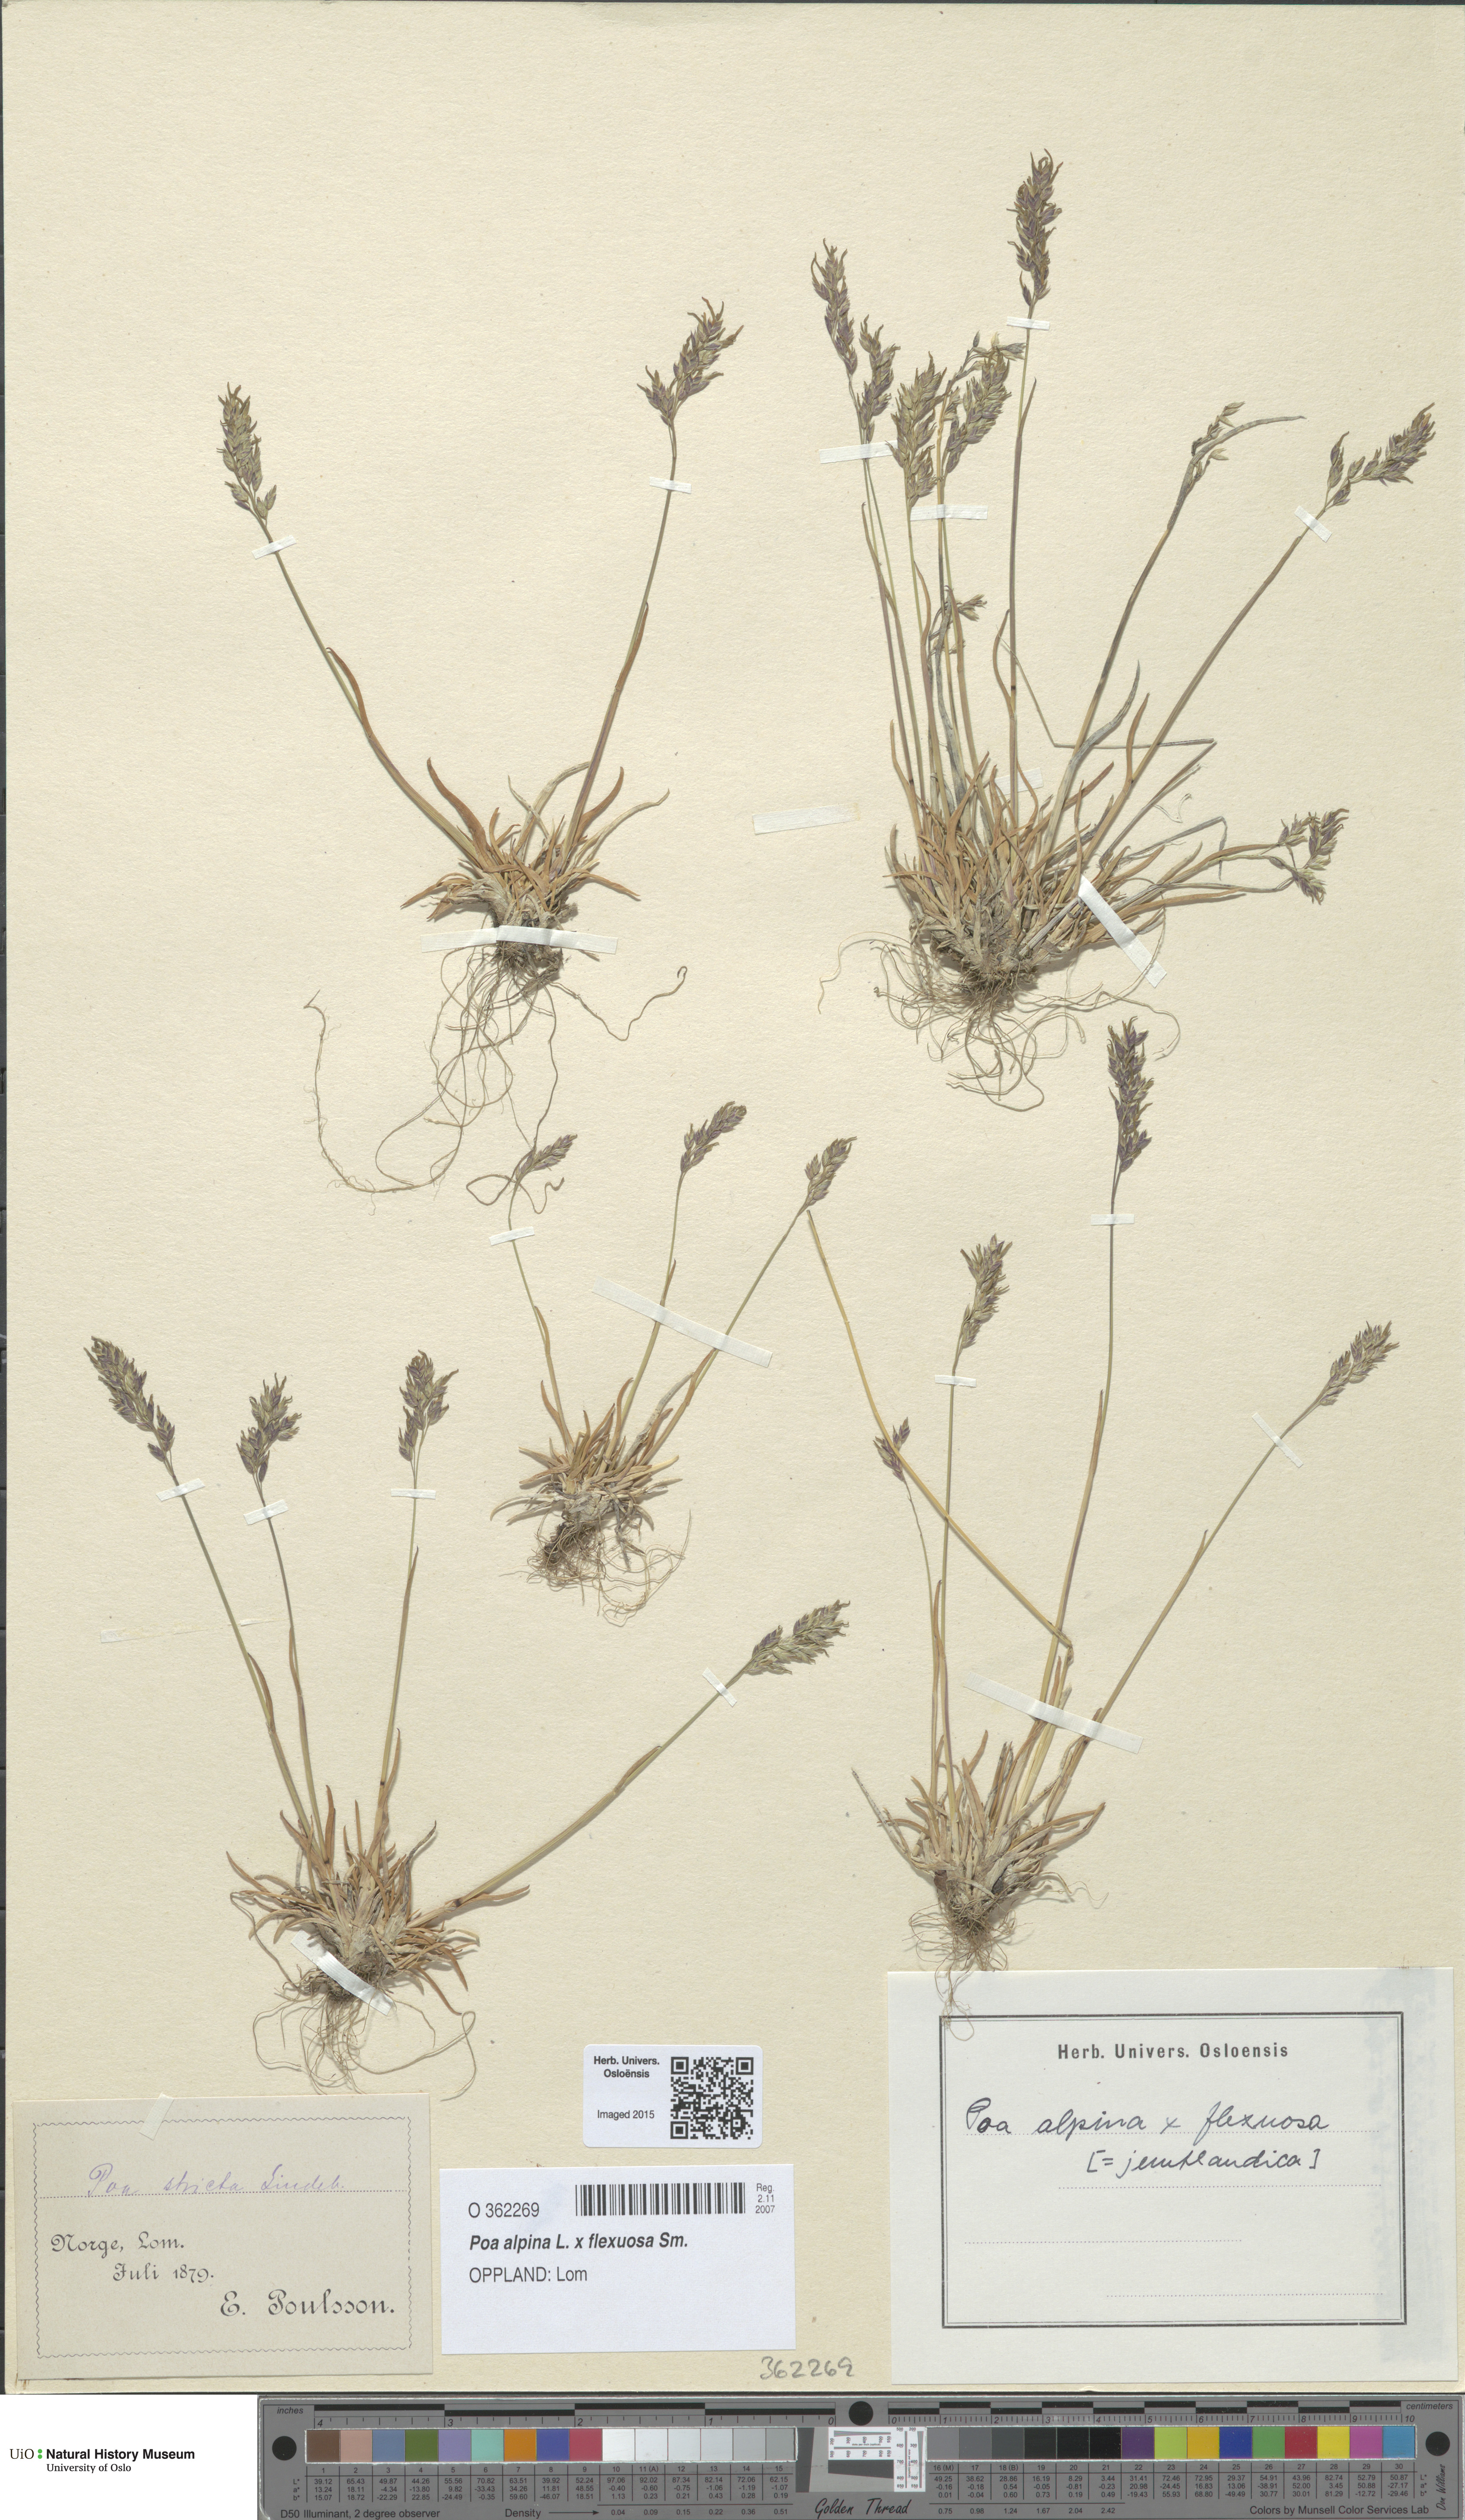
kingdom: Plantae
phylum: Tracheophyta
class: Liliopsida
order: Poales
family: Poaceae
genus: Poa
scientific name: Poa
